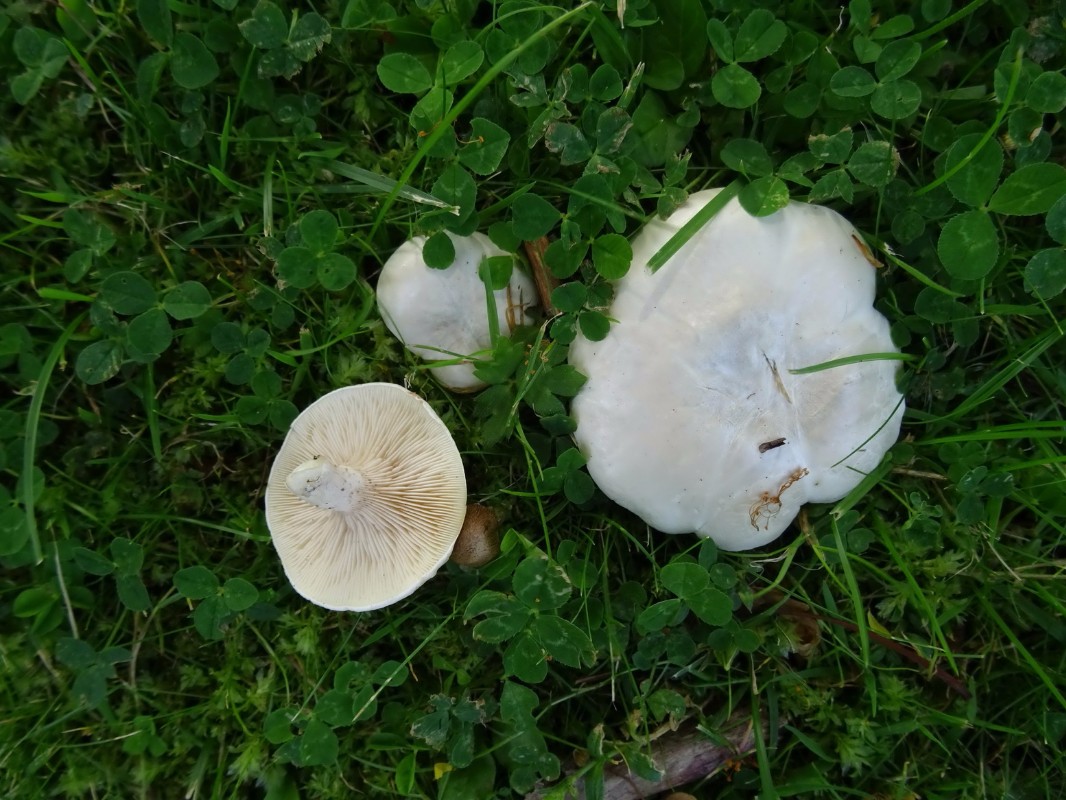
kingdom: Fungi
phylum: Basidiomycota
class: Agaricomycetes
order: Agaricales
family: Entolomataceae
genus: Clitopilus
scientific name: Clitopilus prunulus
